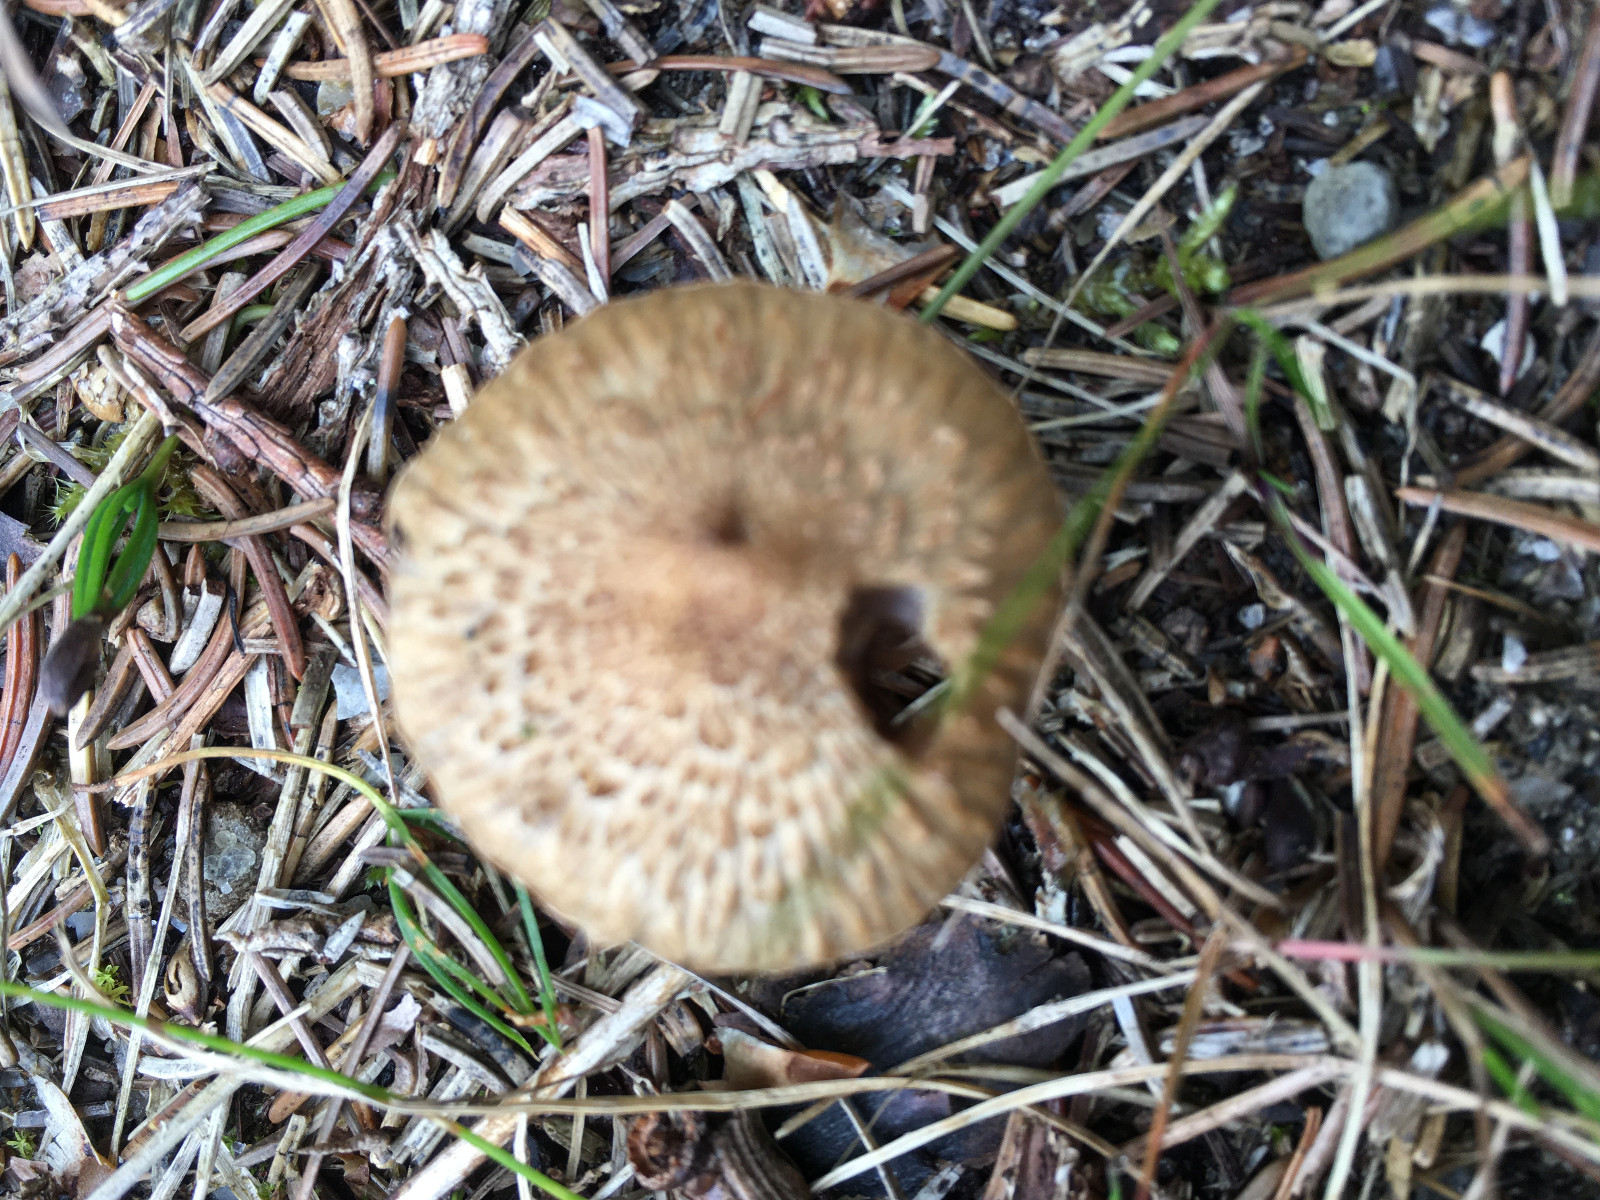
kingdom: Fungi
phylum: Basidiomycota
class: Agaricomycetes
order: Agaricales
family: Inocybaceae
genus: Inocybe
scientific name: Inocybe
